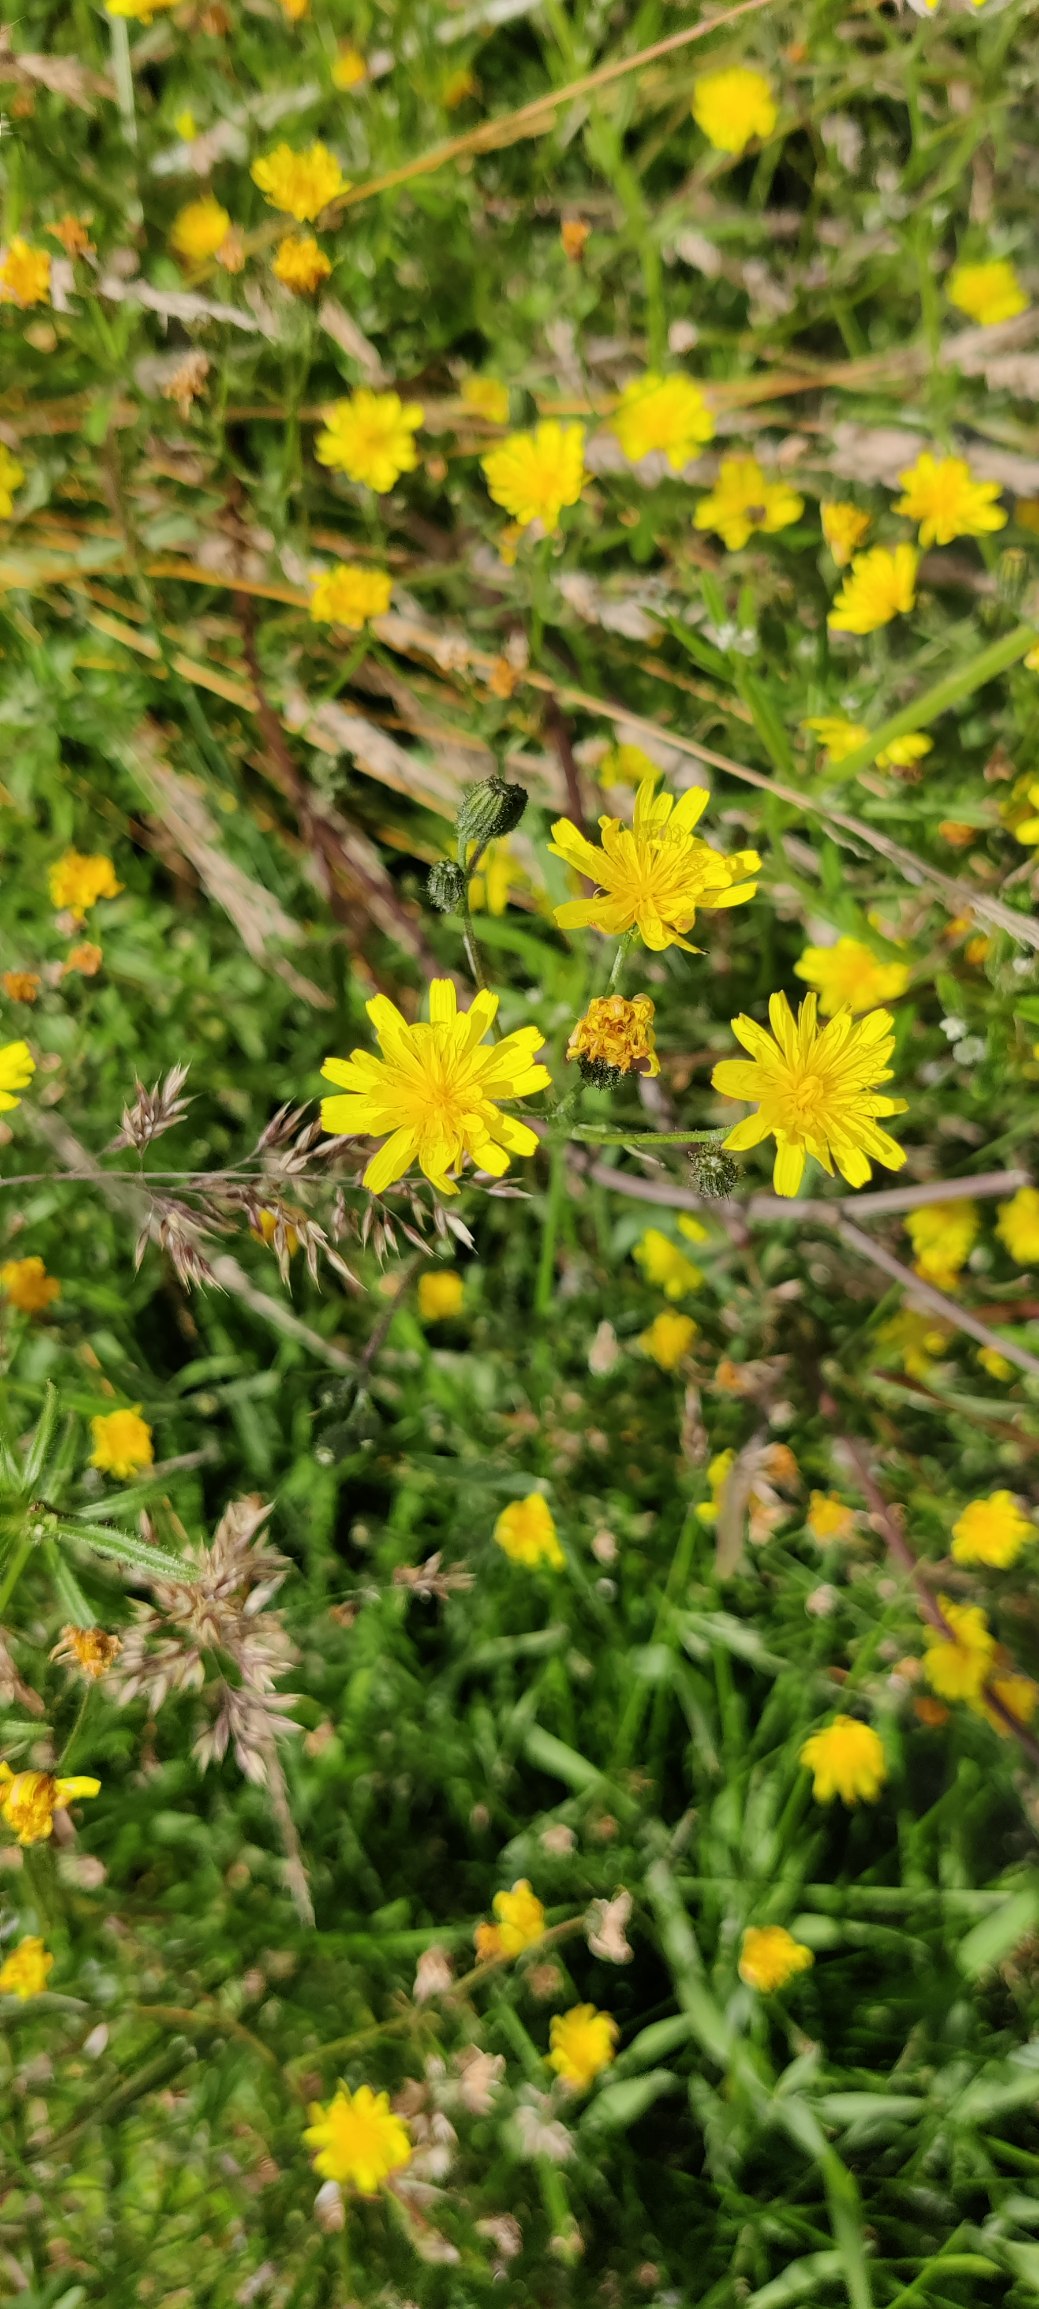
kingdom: Plantae
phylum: Tracheophyta
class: Magnoliopsida
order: Asterales
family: Asteraceae
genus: Crepis
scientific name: Crepis capillaris
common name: Grøn høgeskæg
